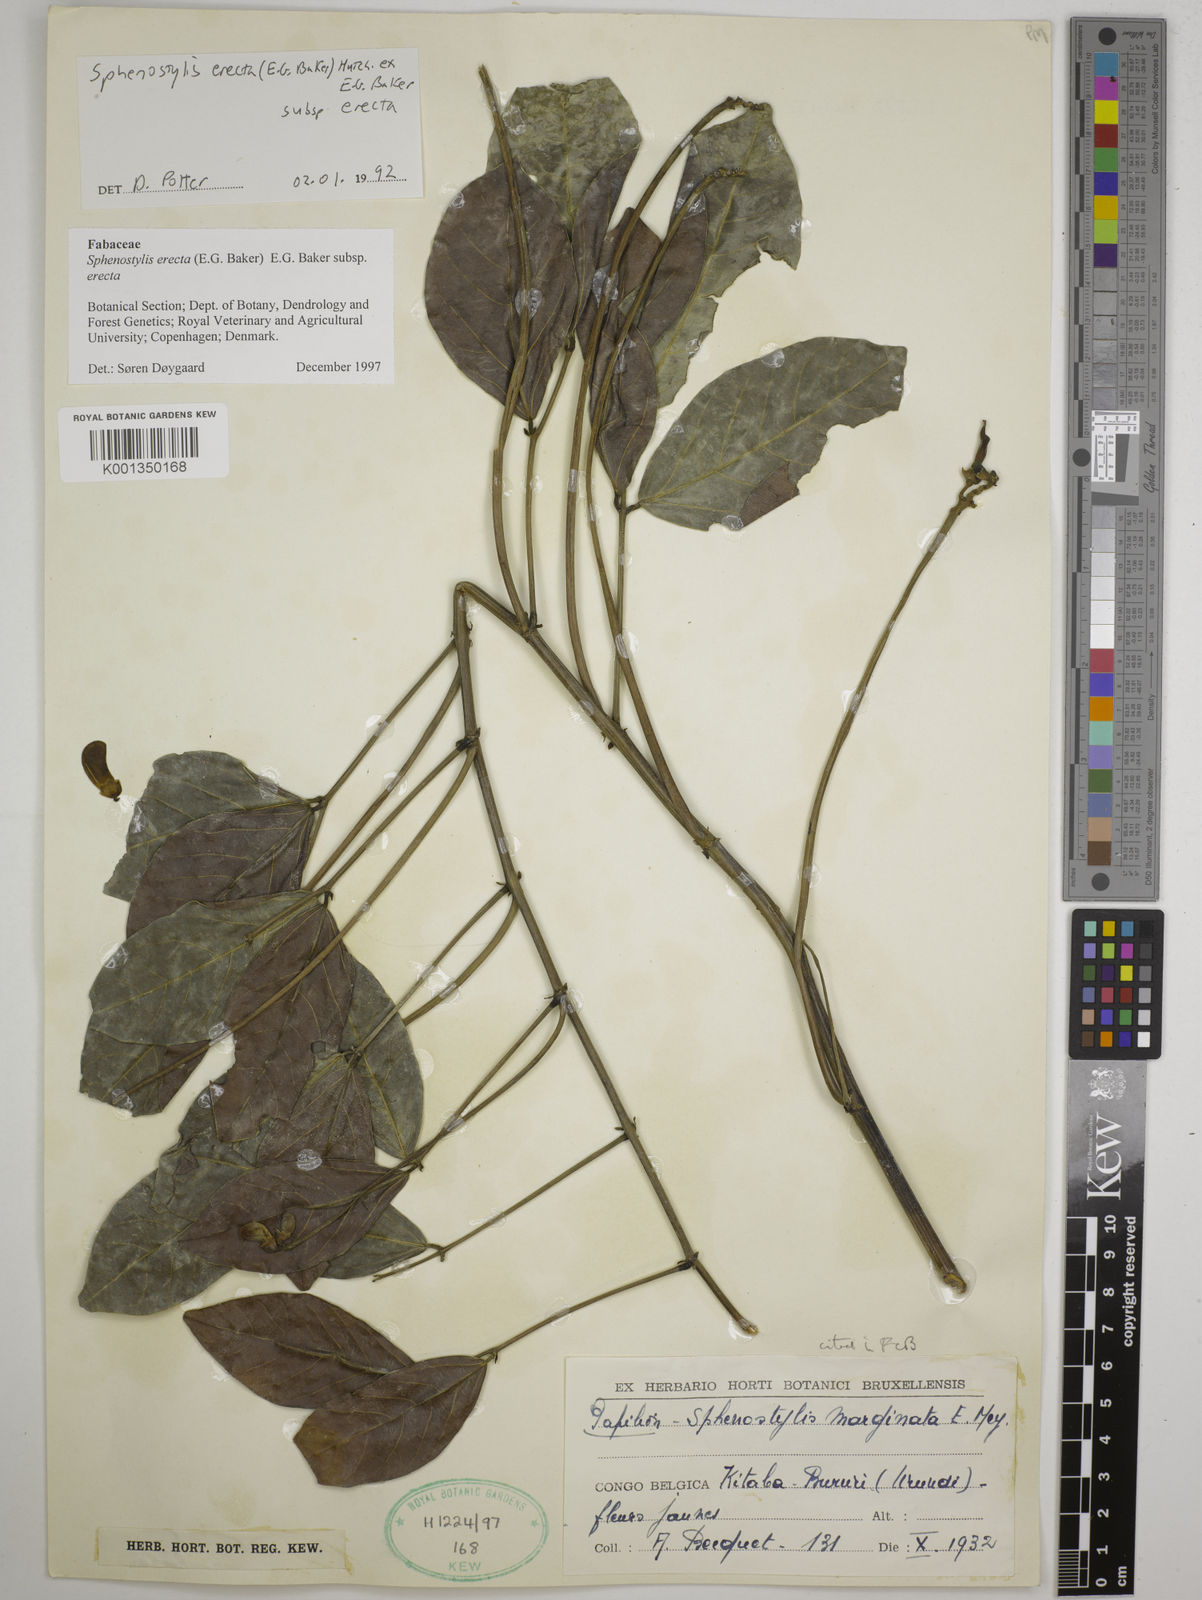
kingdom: Plantae
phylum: Tracheophyta
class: Magnoliopsida
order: Fabales
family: Fabaceae
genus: Sphenostylis
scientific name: Sphenostylis erecta
